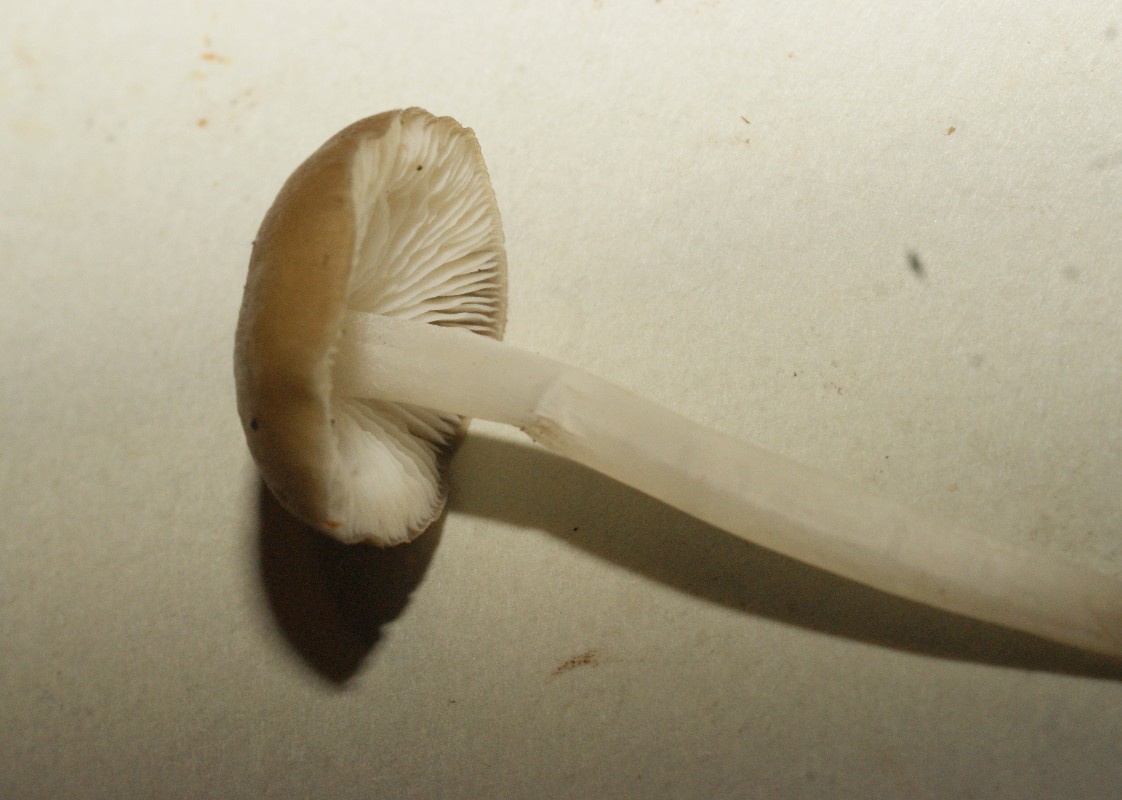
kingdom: Fungi
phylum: Basidiomycota
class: Agaricomycetes
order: Agaricales
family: Porotheleaceae
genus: Hydropodia
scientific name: Hydropodia subalpina
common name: vår-fnugfod
